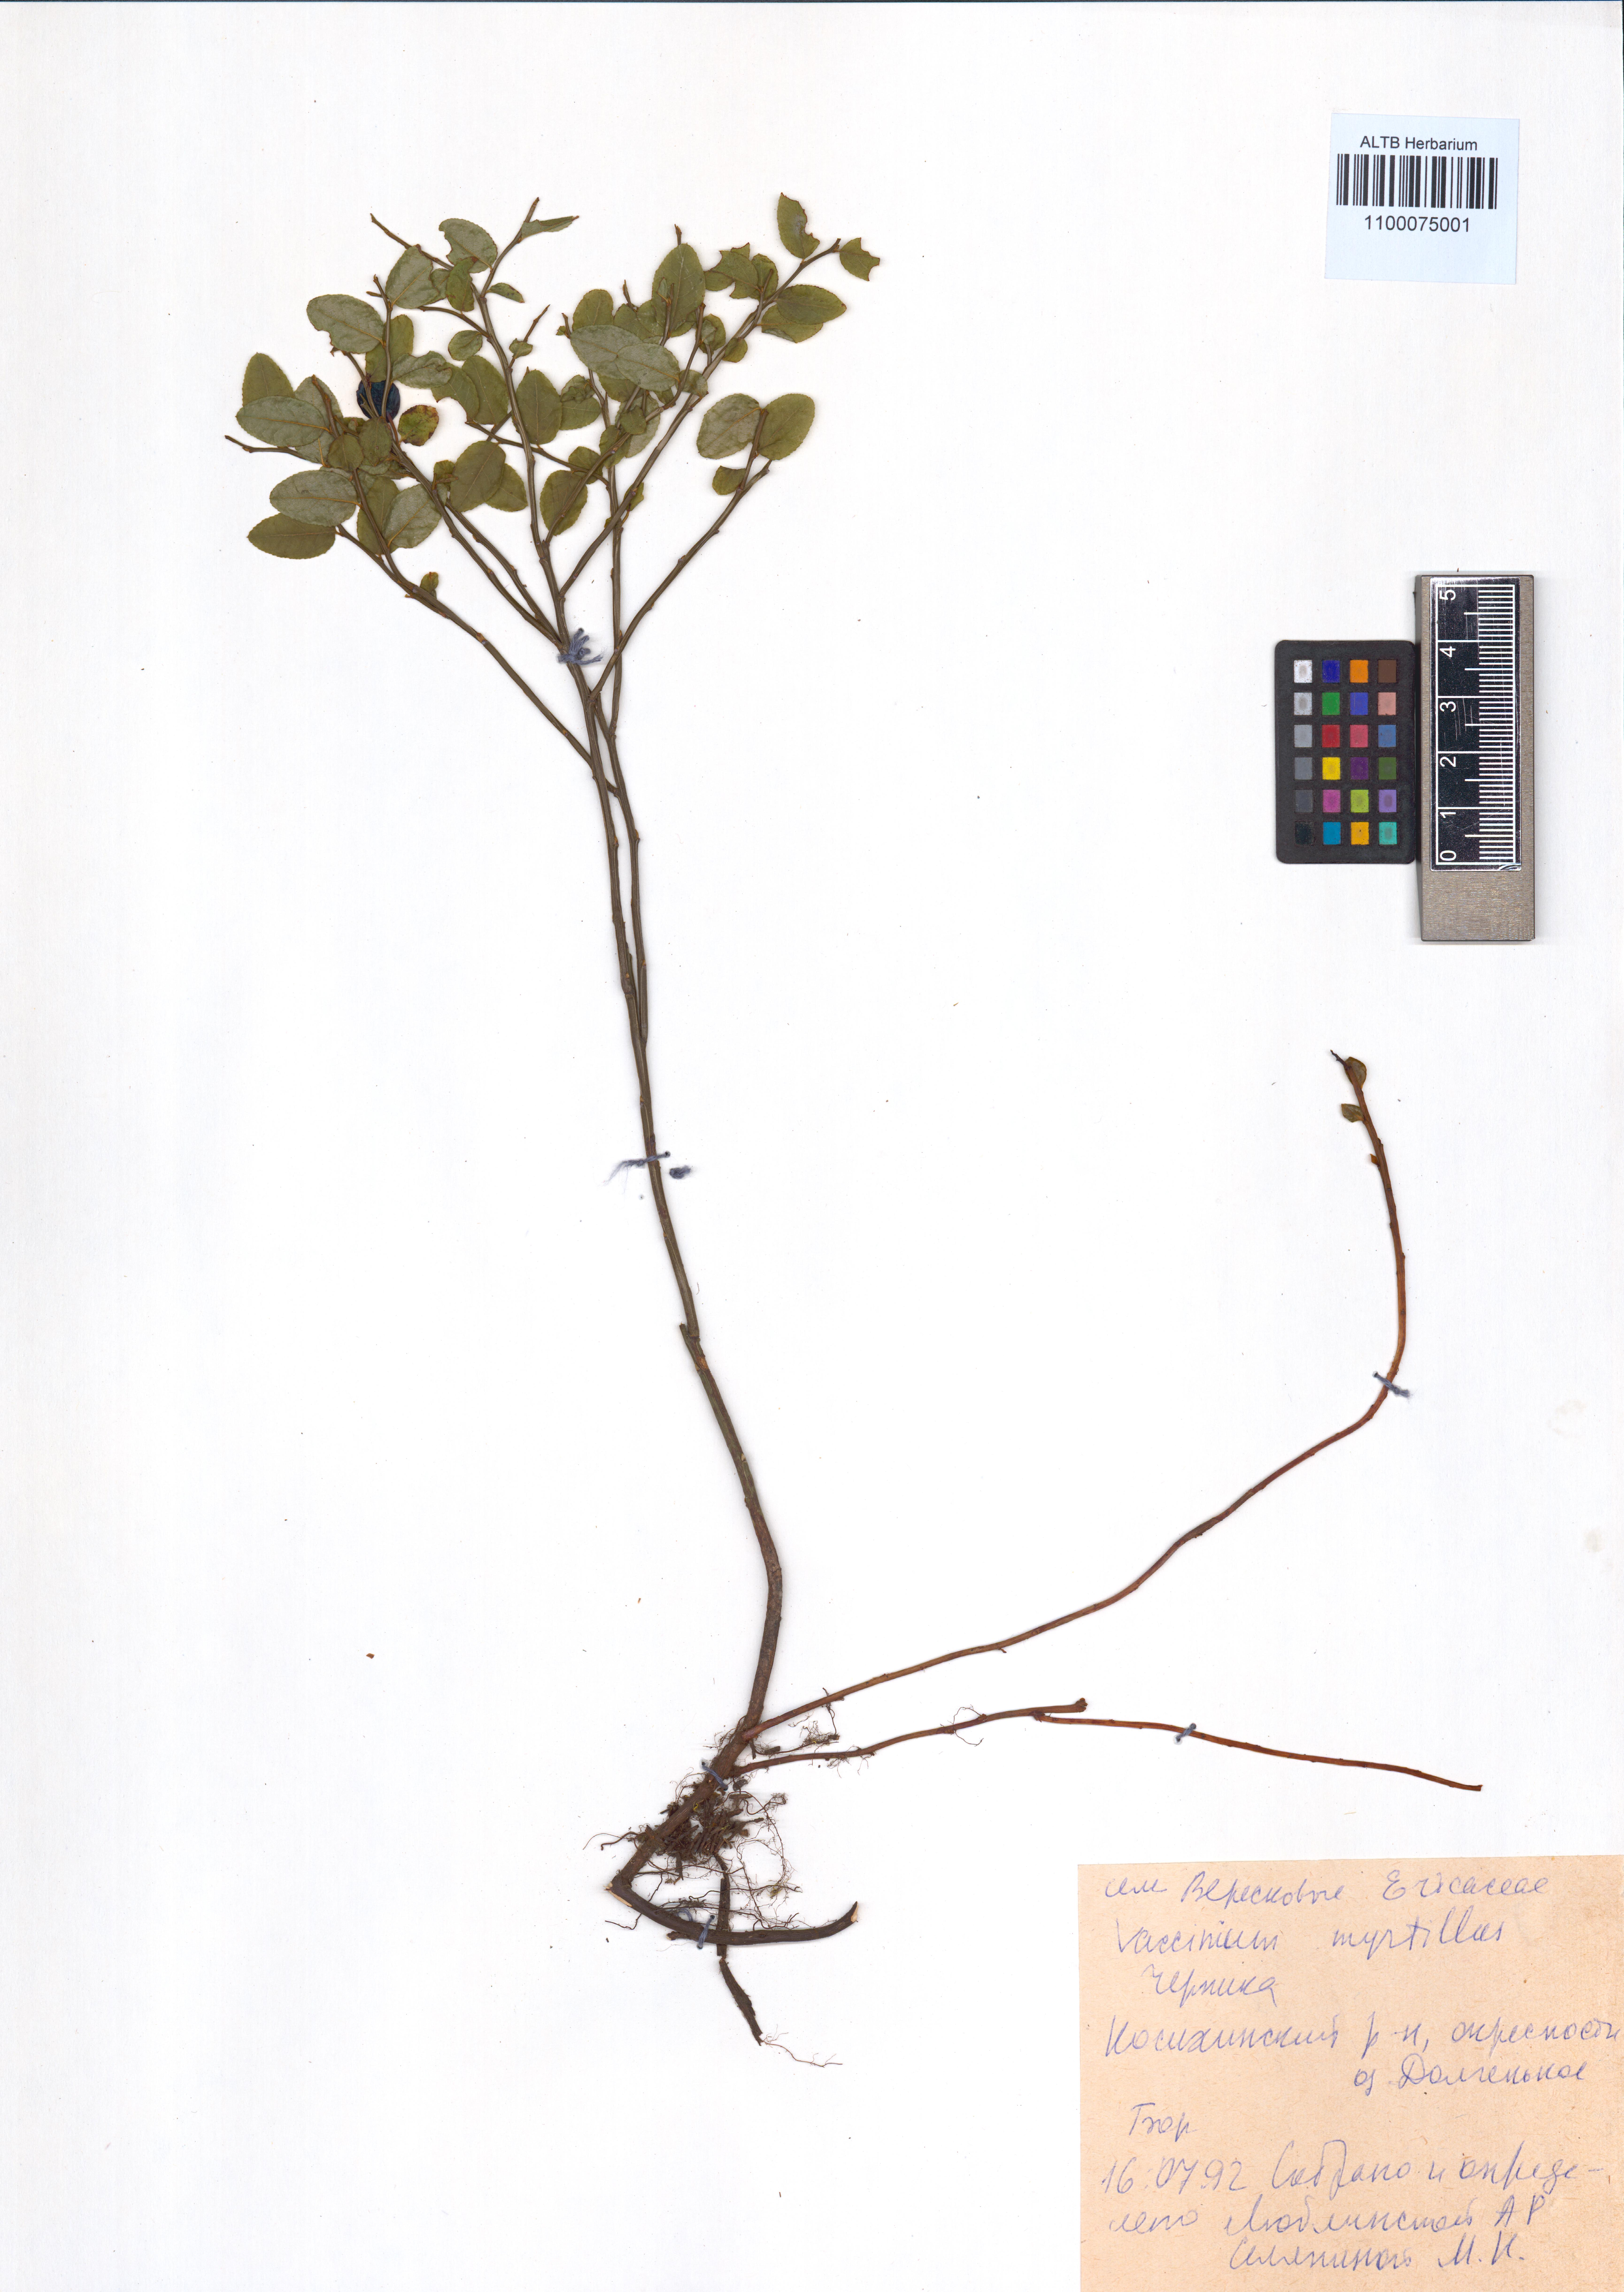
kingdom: Plantae
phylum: Tracheophyta
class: Magnoliopsida
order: Ericales
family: Ericaceae
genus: Vaccinium
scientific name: Vaccinium myrtillus
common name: Bilberry
